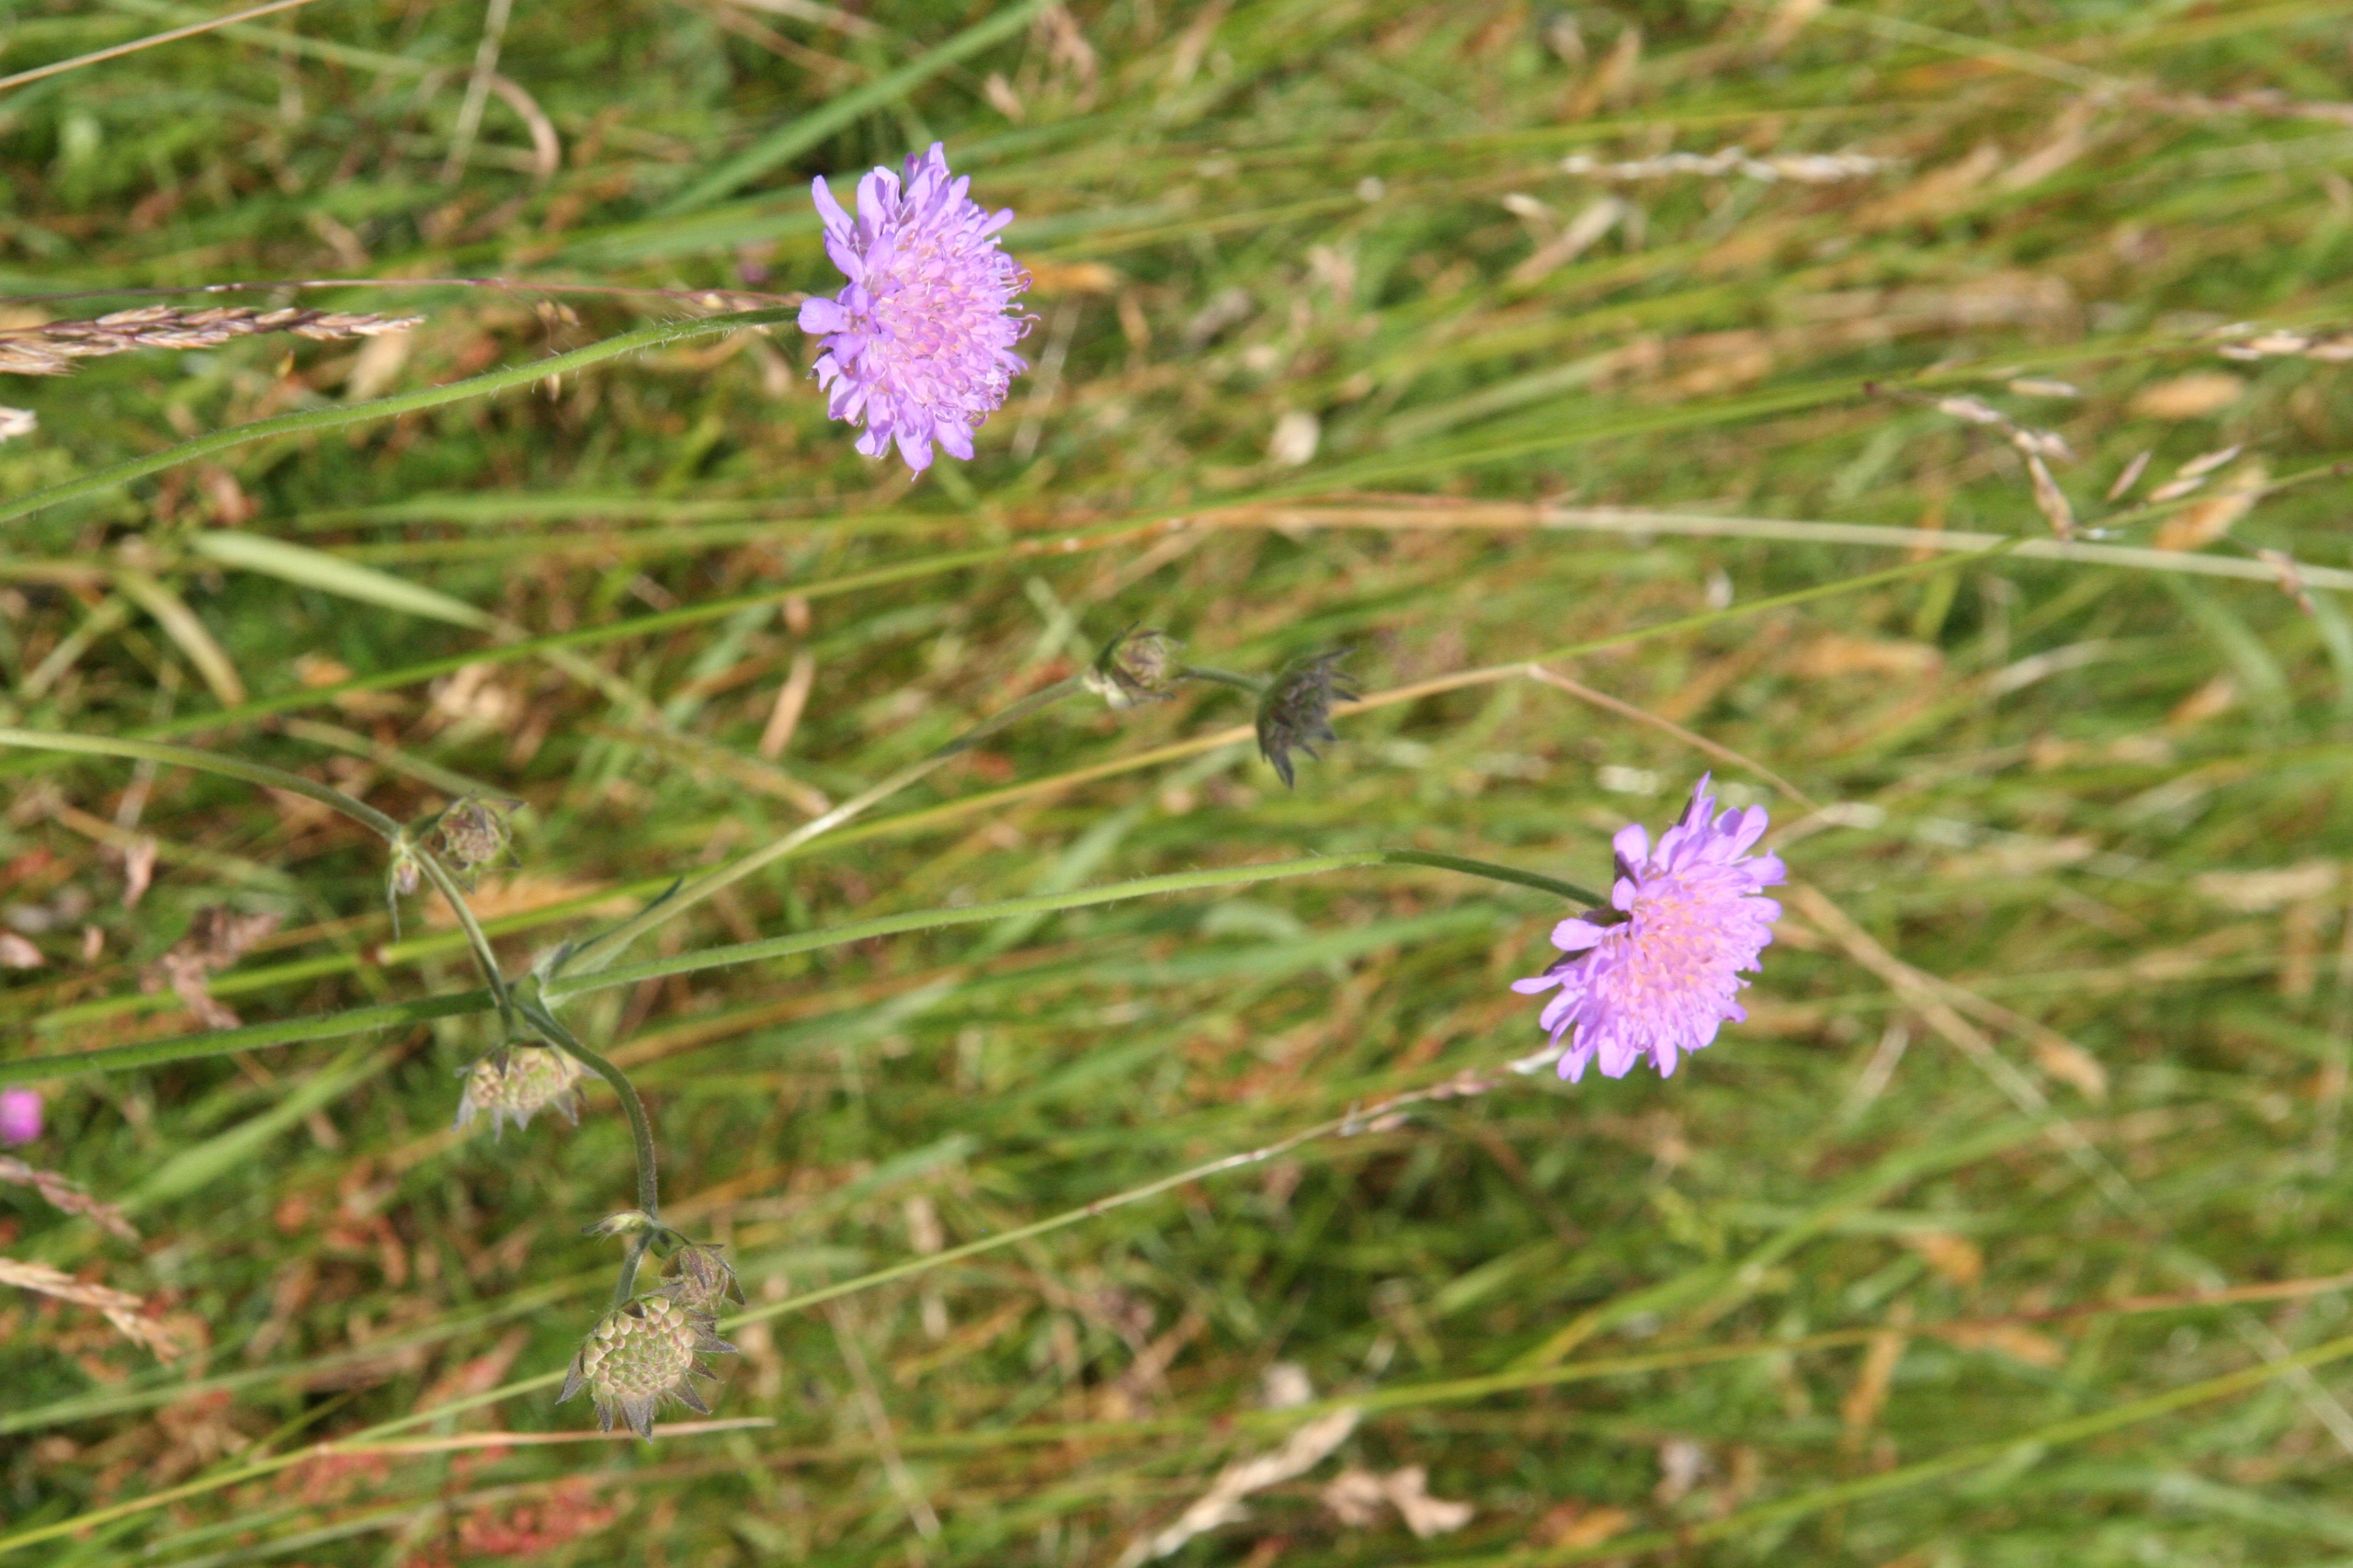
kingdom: Plantae
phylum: Tracheophyta
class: Magnoliopsida
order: Dipsacales
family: Caprifoliaceae
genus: Knautia
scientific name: Knautia arvensis
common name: Blåhat
